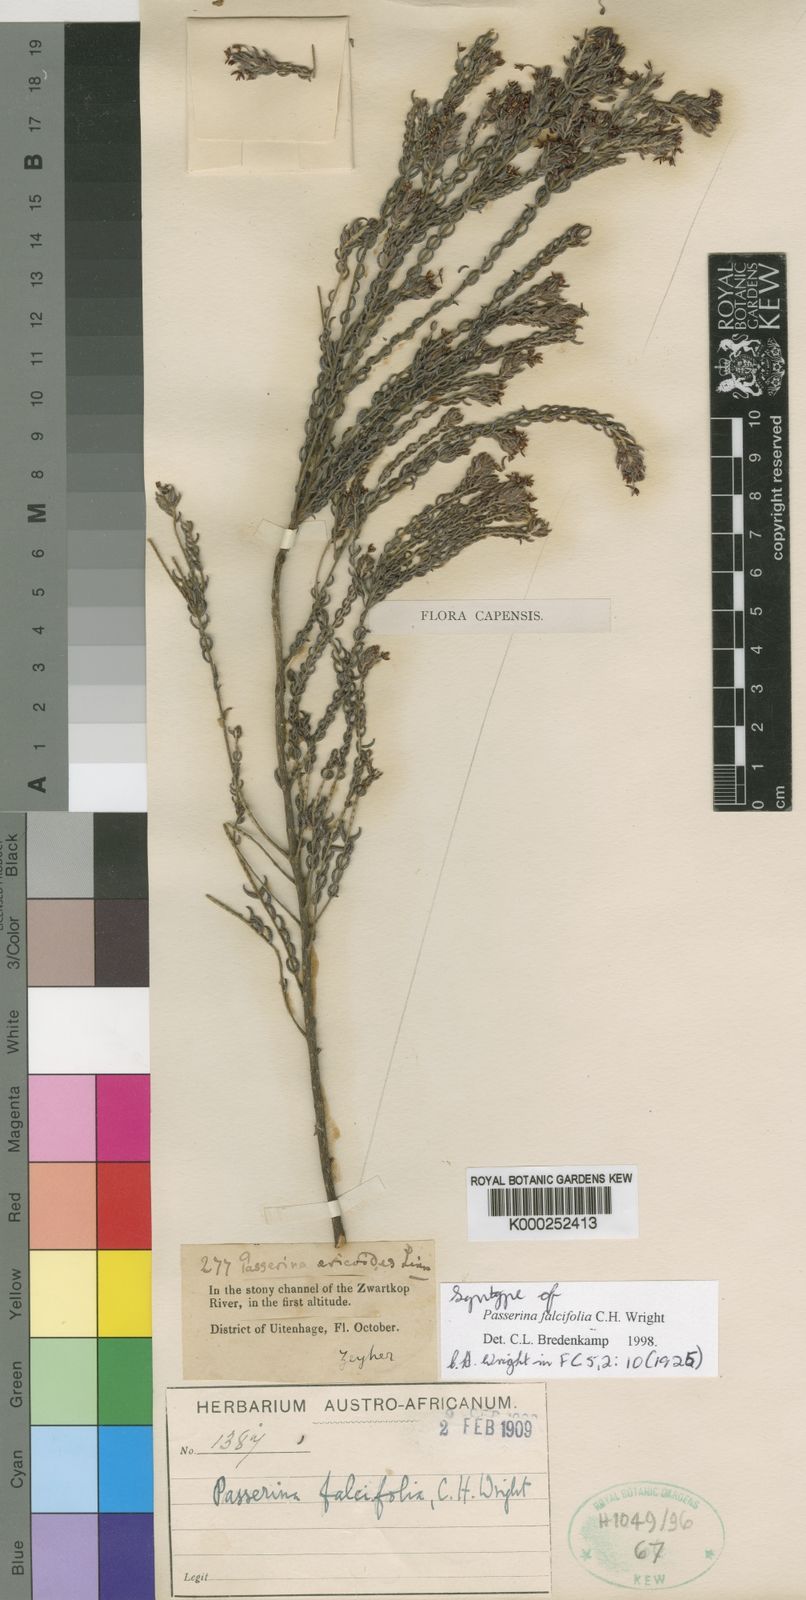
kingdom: Plantae
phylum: Tracheophyta
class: Magnoliopsida
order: Malvales
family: Thymelaeaceae
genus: Passerina
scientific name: Passerina falcifolia
